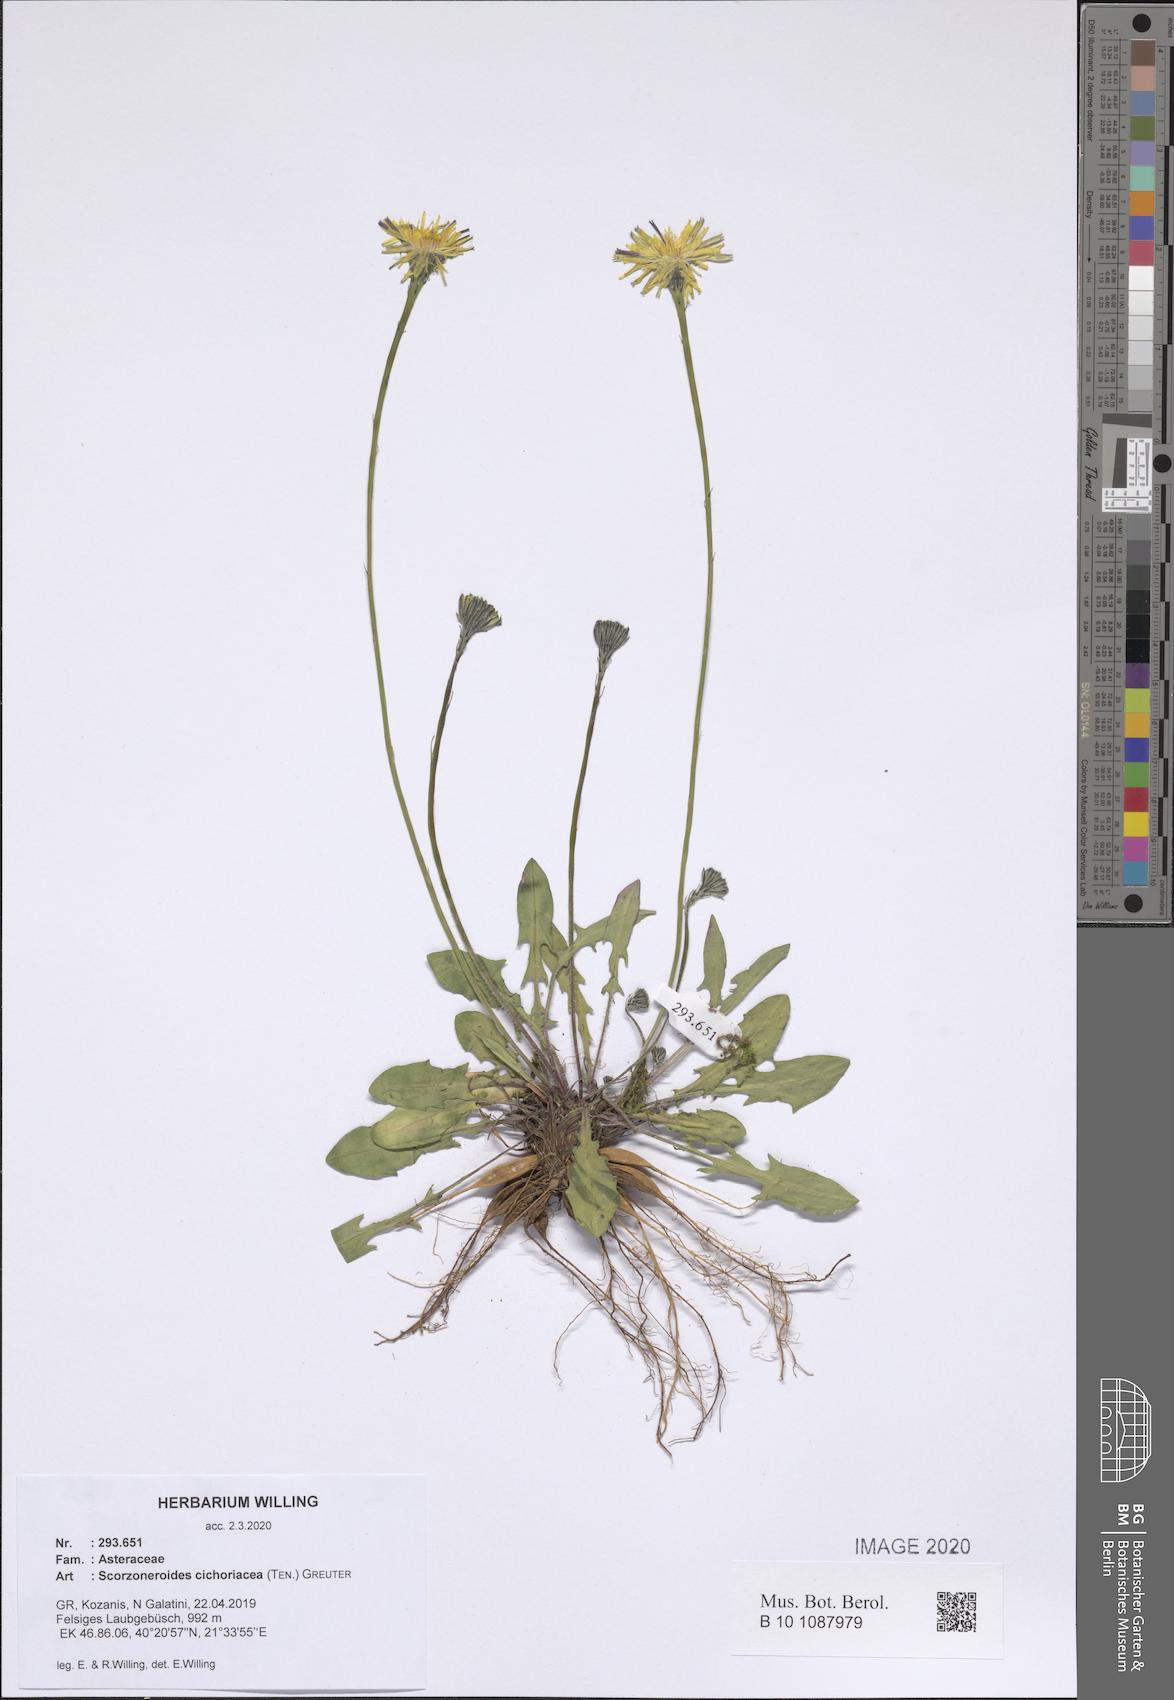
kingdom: Plantae
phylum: Tracheophyta
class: Magnoliopsida
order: Asterales
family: Asteraceae
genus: Scorzoneroides
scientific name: Scorzoneroides cichoriacea
